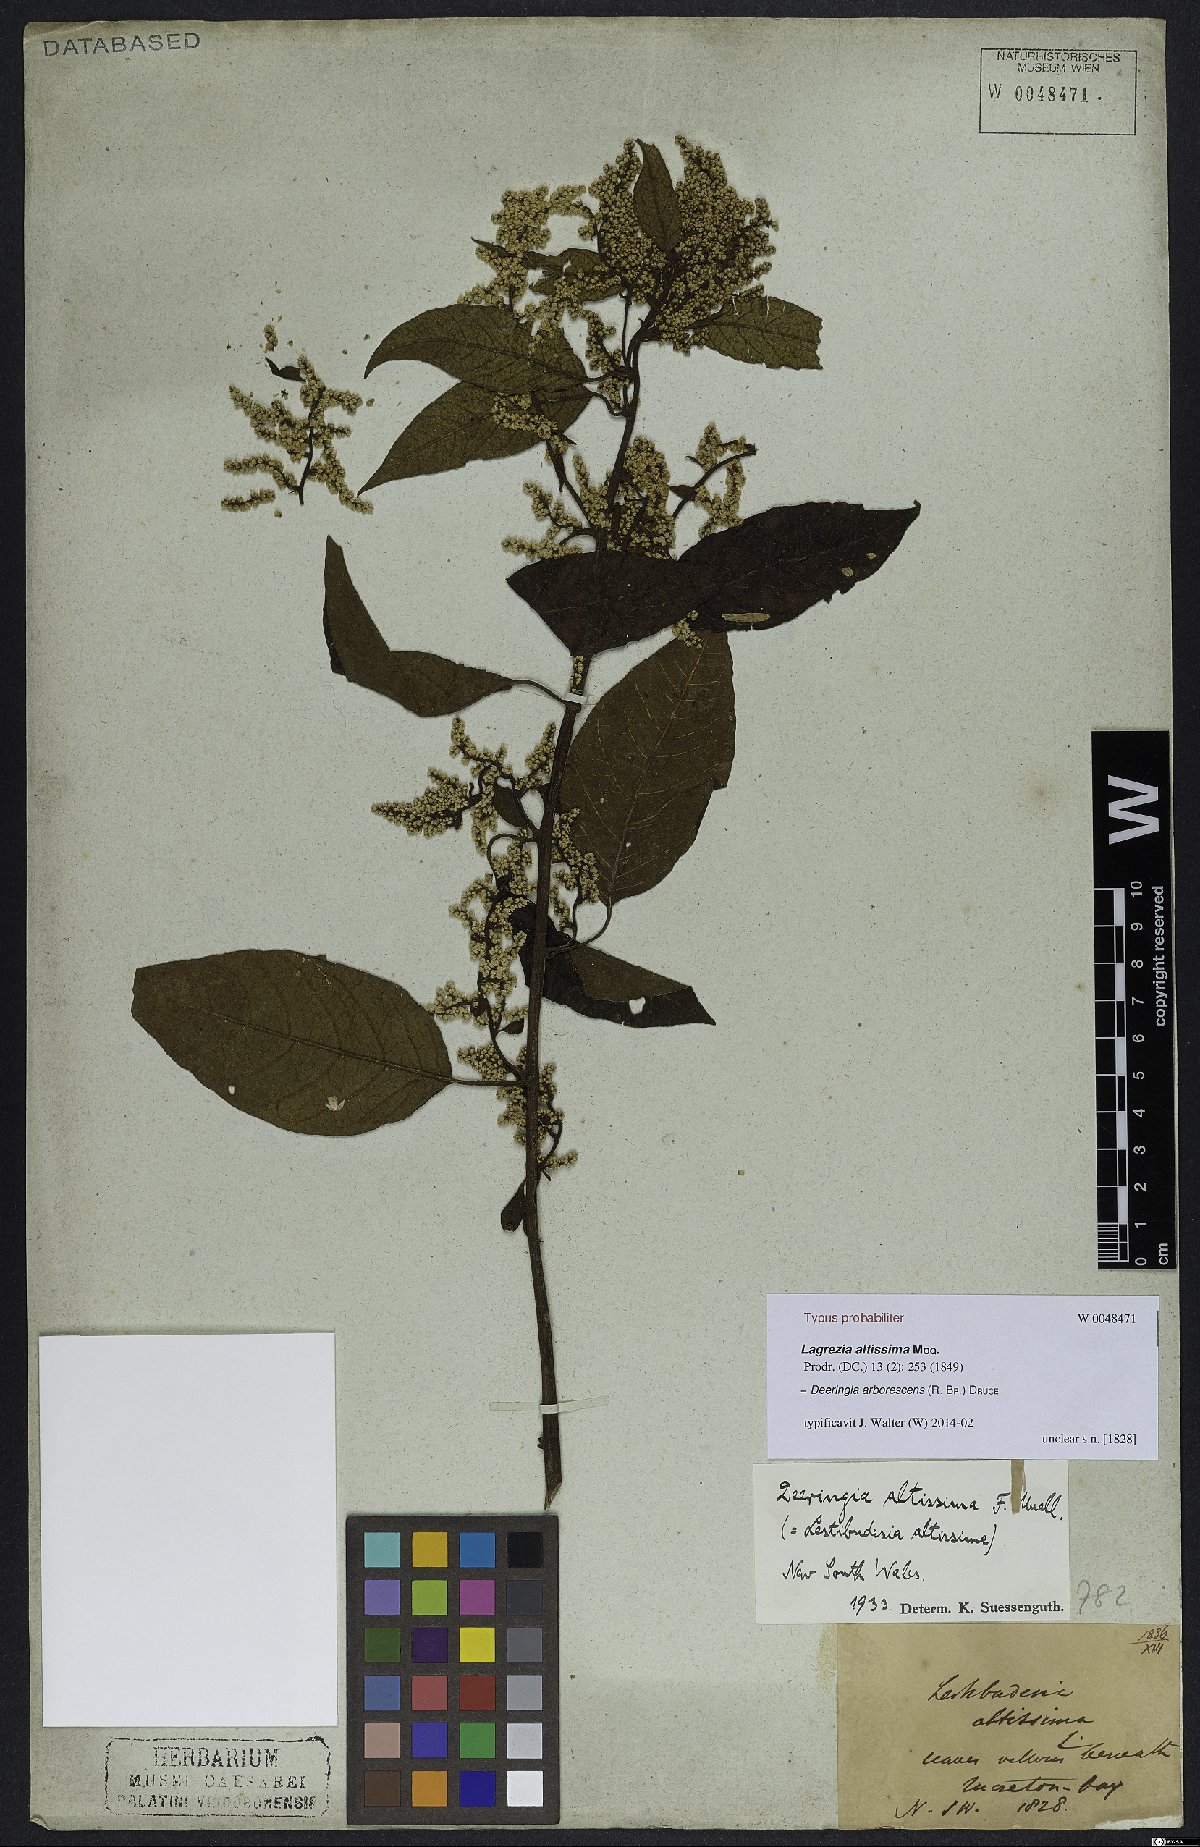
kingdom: Plantae
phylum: Tracheophyta
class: Magnoliopsida
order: Caryophyllales
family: Amaranthaceae
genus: Deeringia
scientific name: Deeringia arborescens
